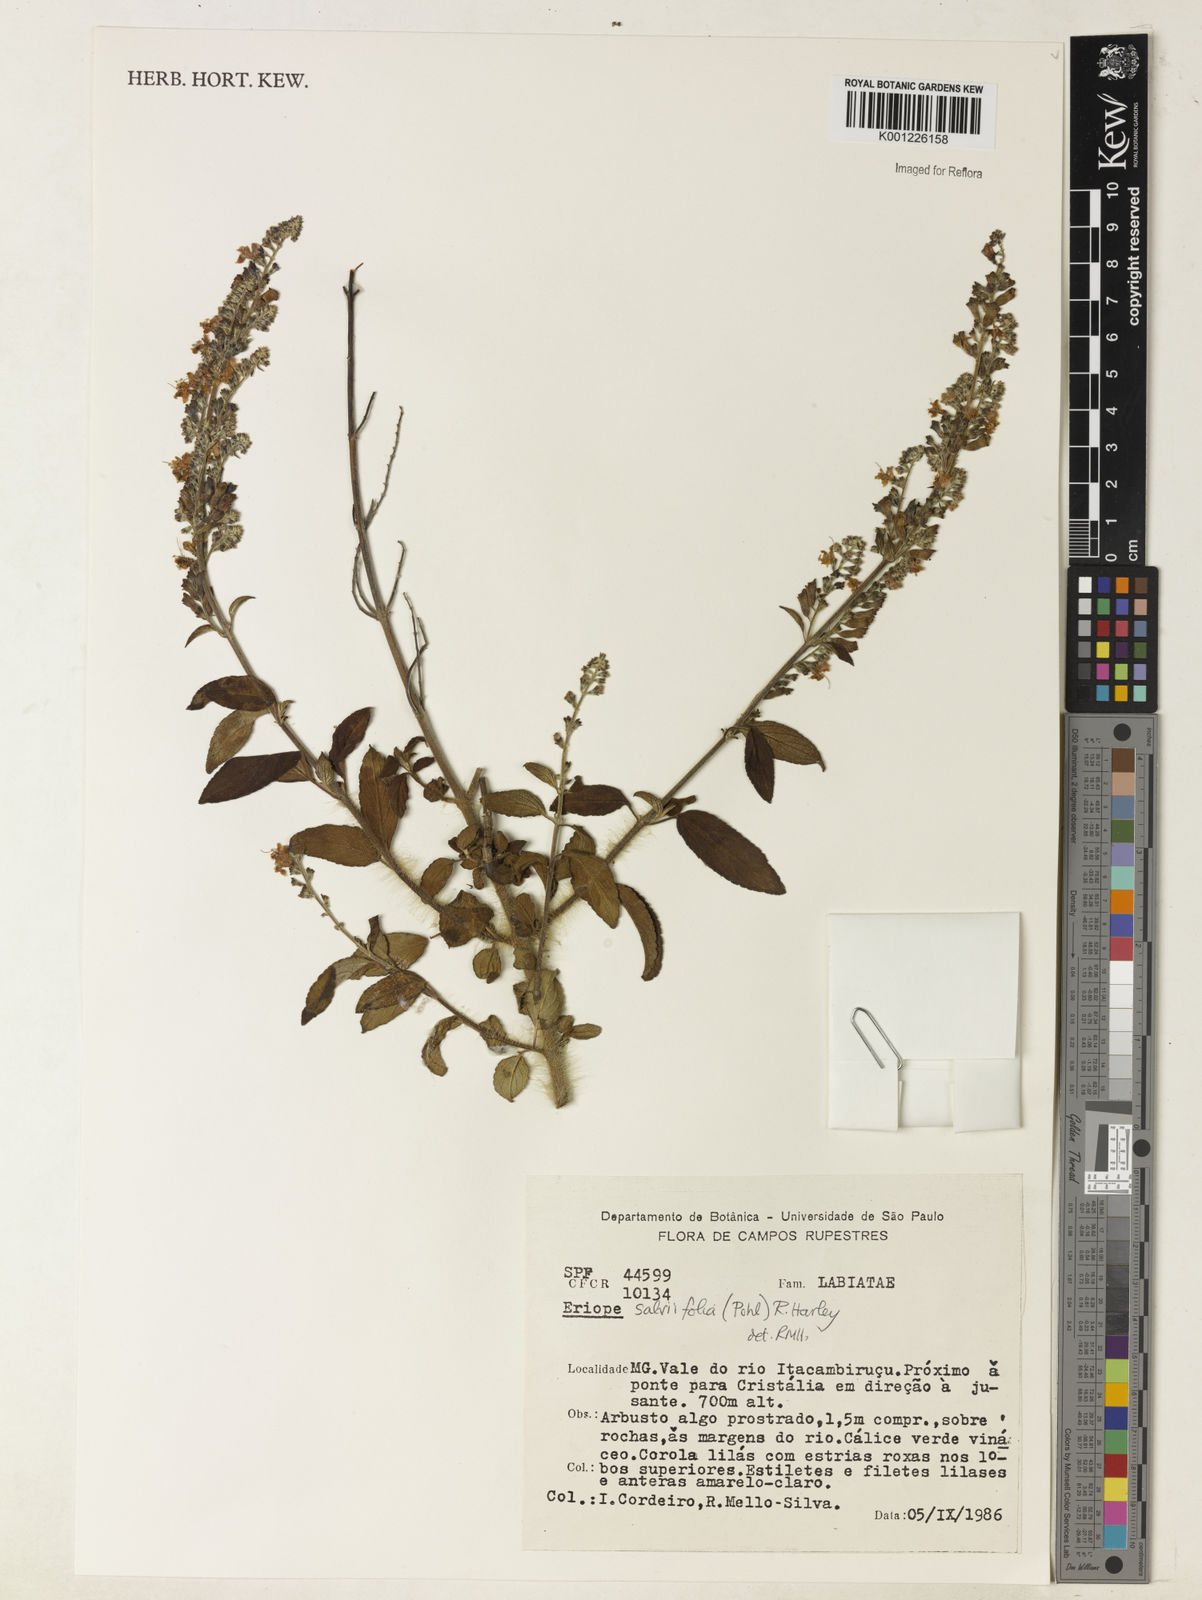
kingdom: Plantae
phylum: Tracheophyta
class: Magnoliopsida
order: Lamiales
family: Lamiaceae
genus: Eriope
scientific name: Eriope salviifolia
